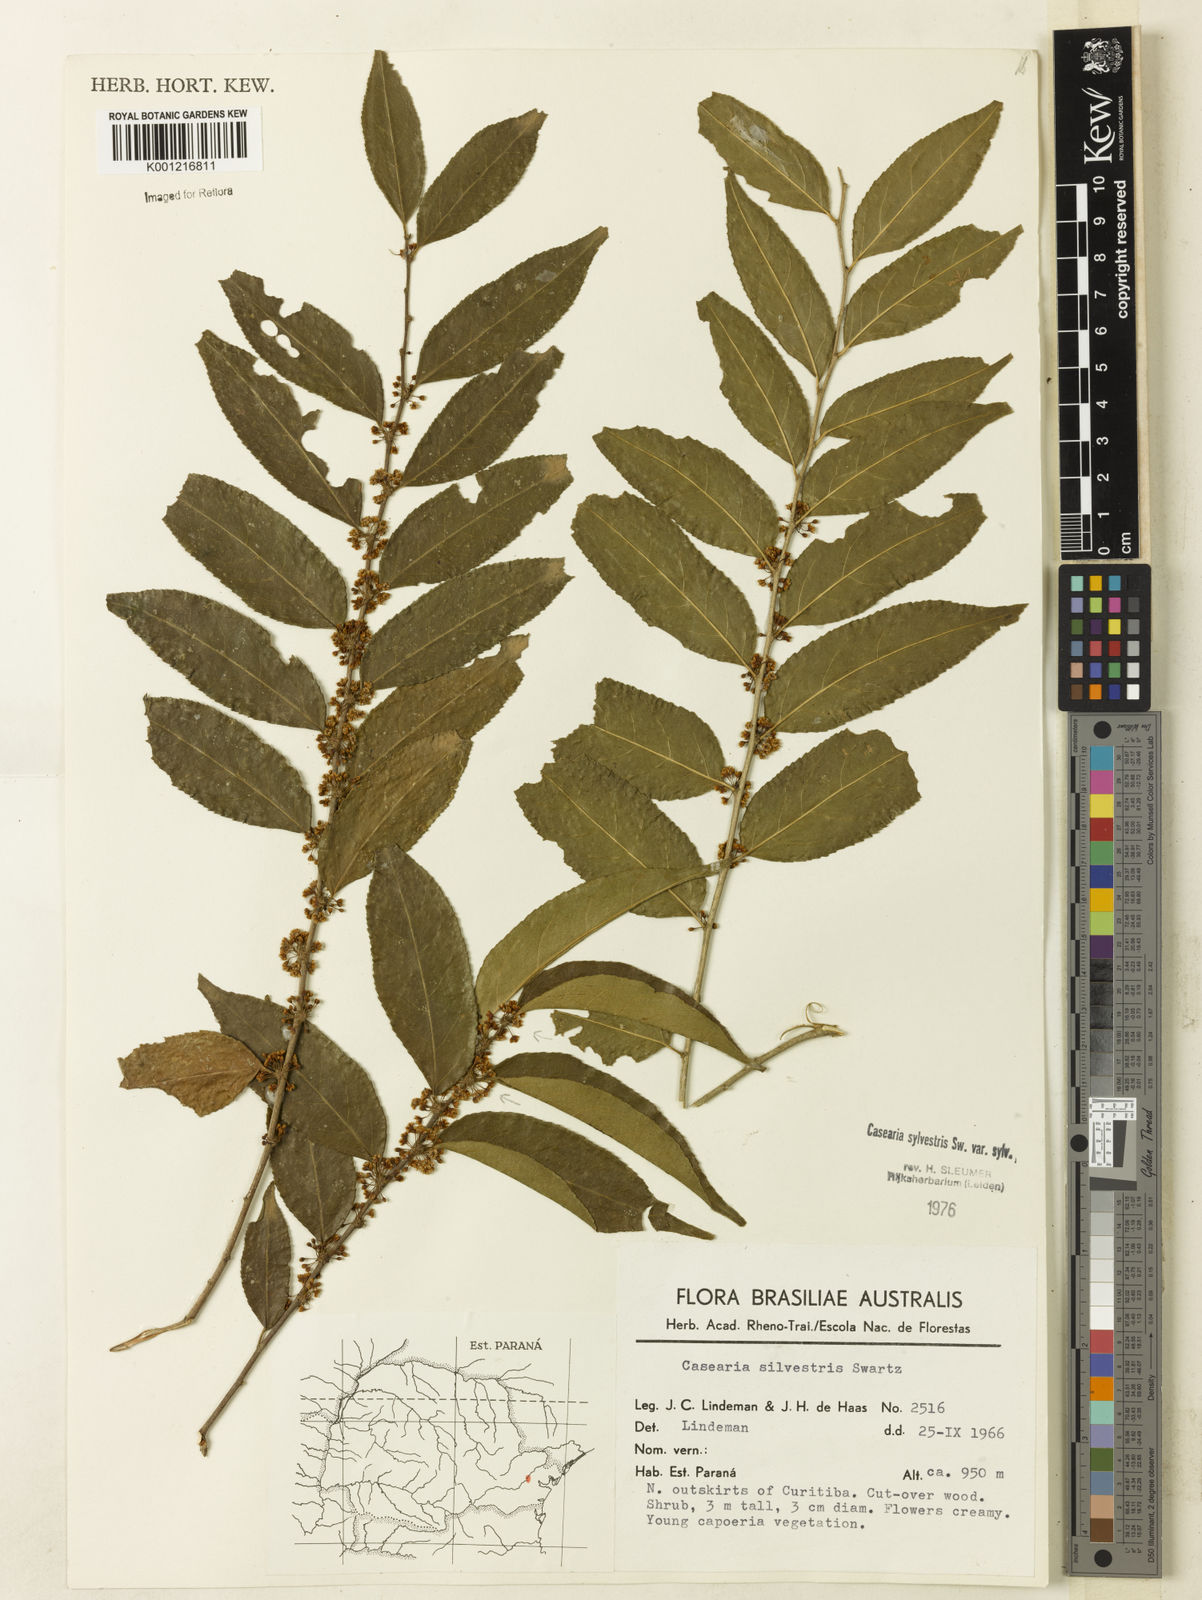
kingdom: Plantae
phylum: Tracheophyta
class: Magnoliopsida
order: Malpighiales
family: Salicaceae
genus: Casearia
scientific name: Casearia sylvestris
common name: Wild sage
